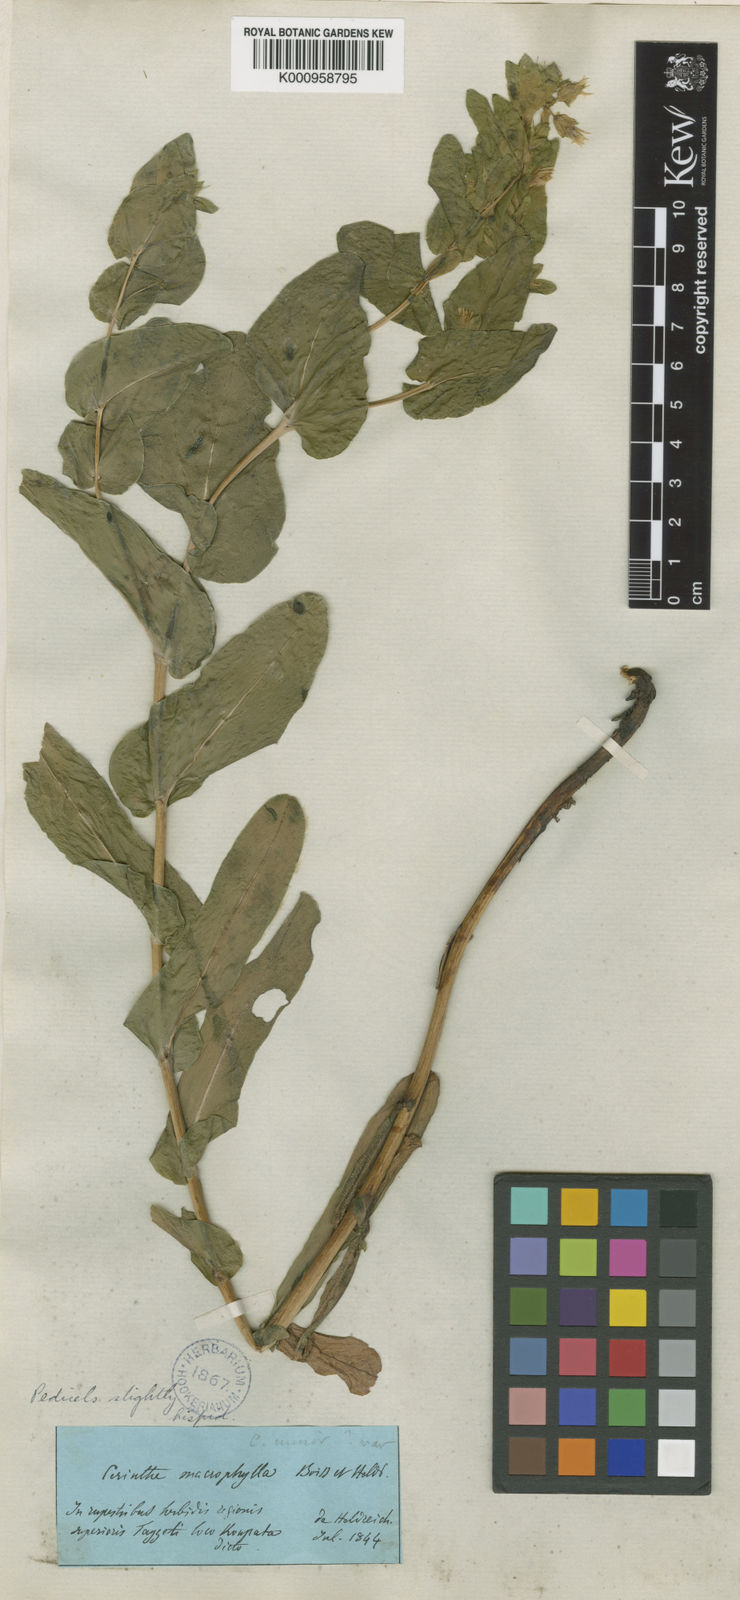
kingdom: Plantae
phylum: Tracheophyta
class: Magnoliopsida
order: Boraginales
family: Boraginaceae
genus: Cerinthe
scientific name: Cerinthe minor
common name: Lesser honeywort
